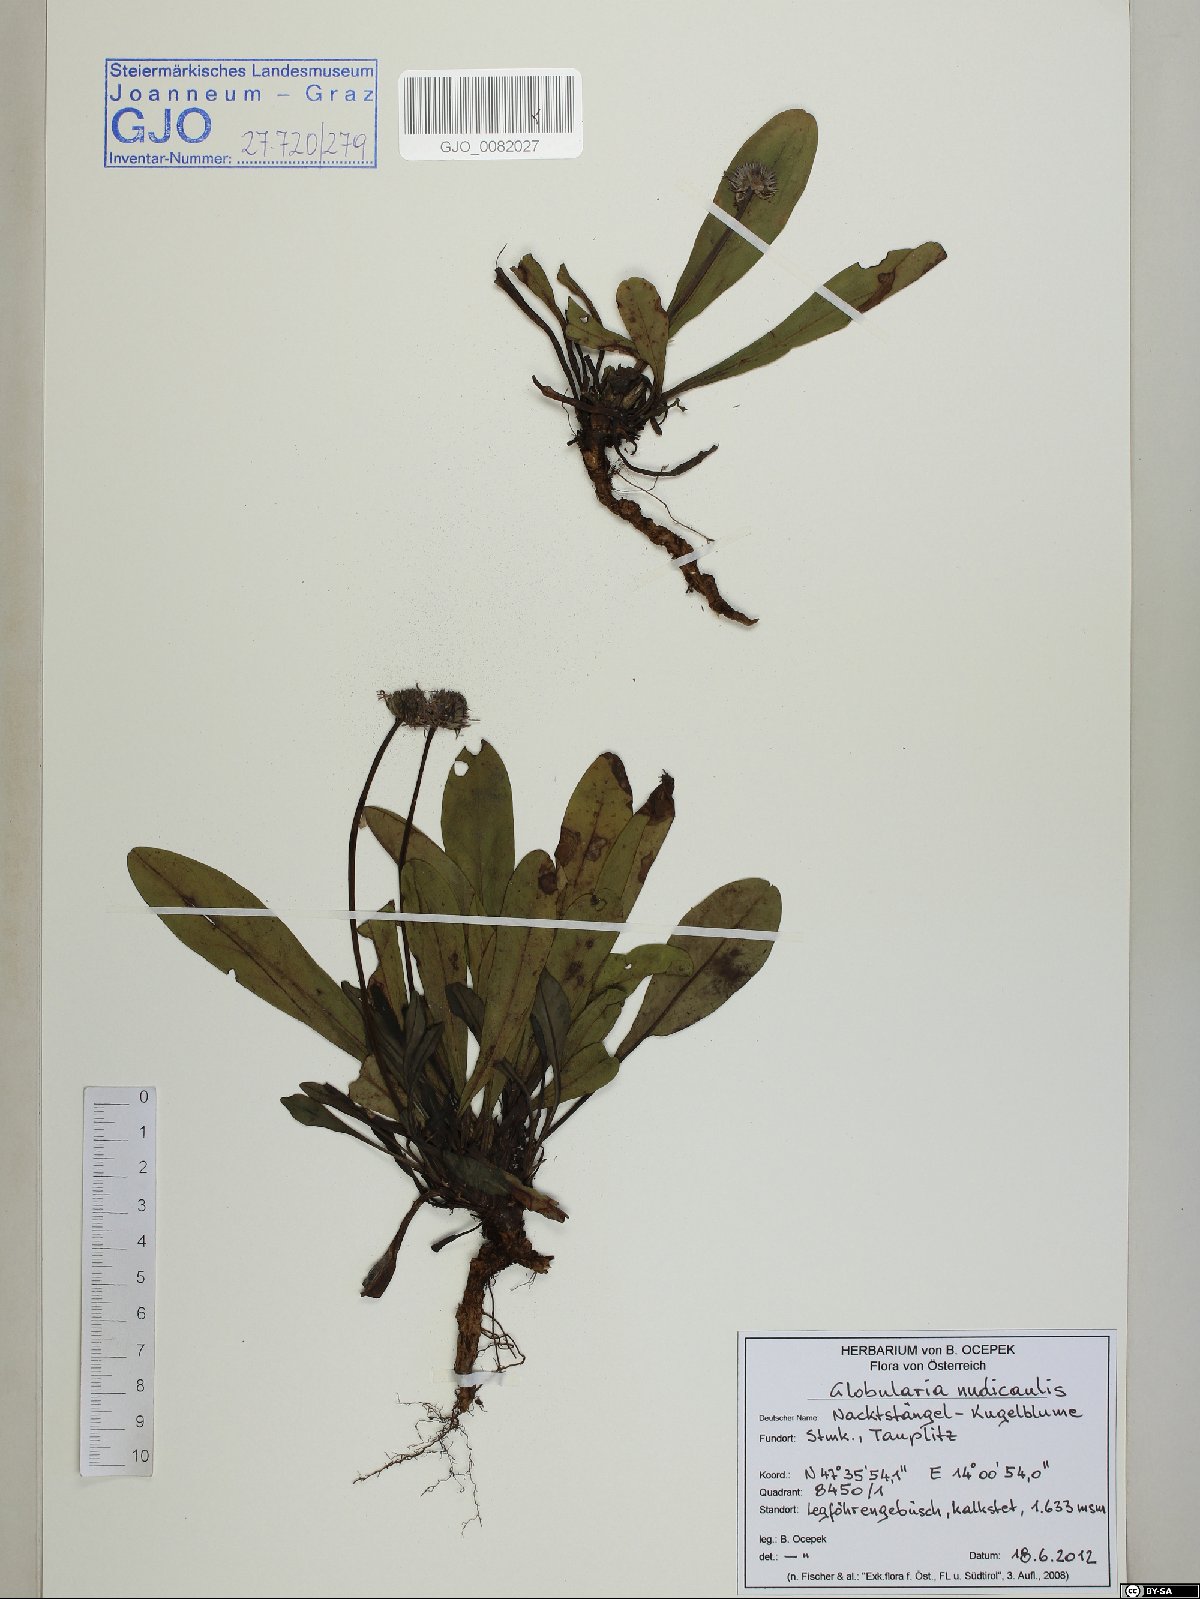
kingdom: Plantae
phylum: Tracheophyta
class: Magnoliopsida
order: Lamiales
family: Plantaginaceae
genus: Globularia
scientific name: Globularia nudicaulis
